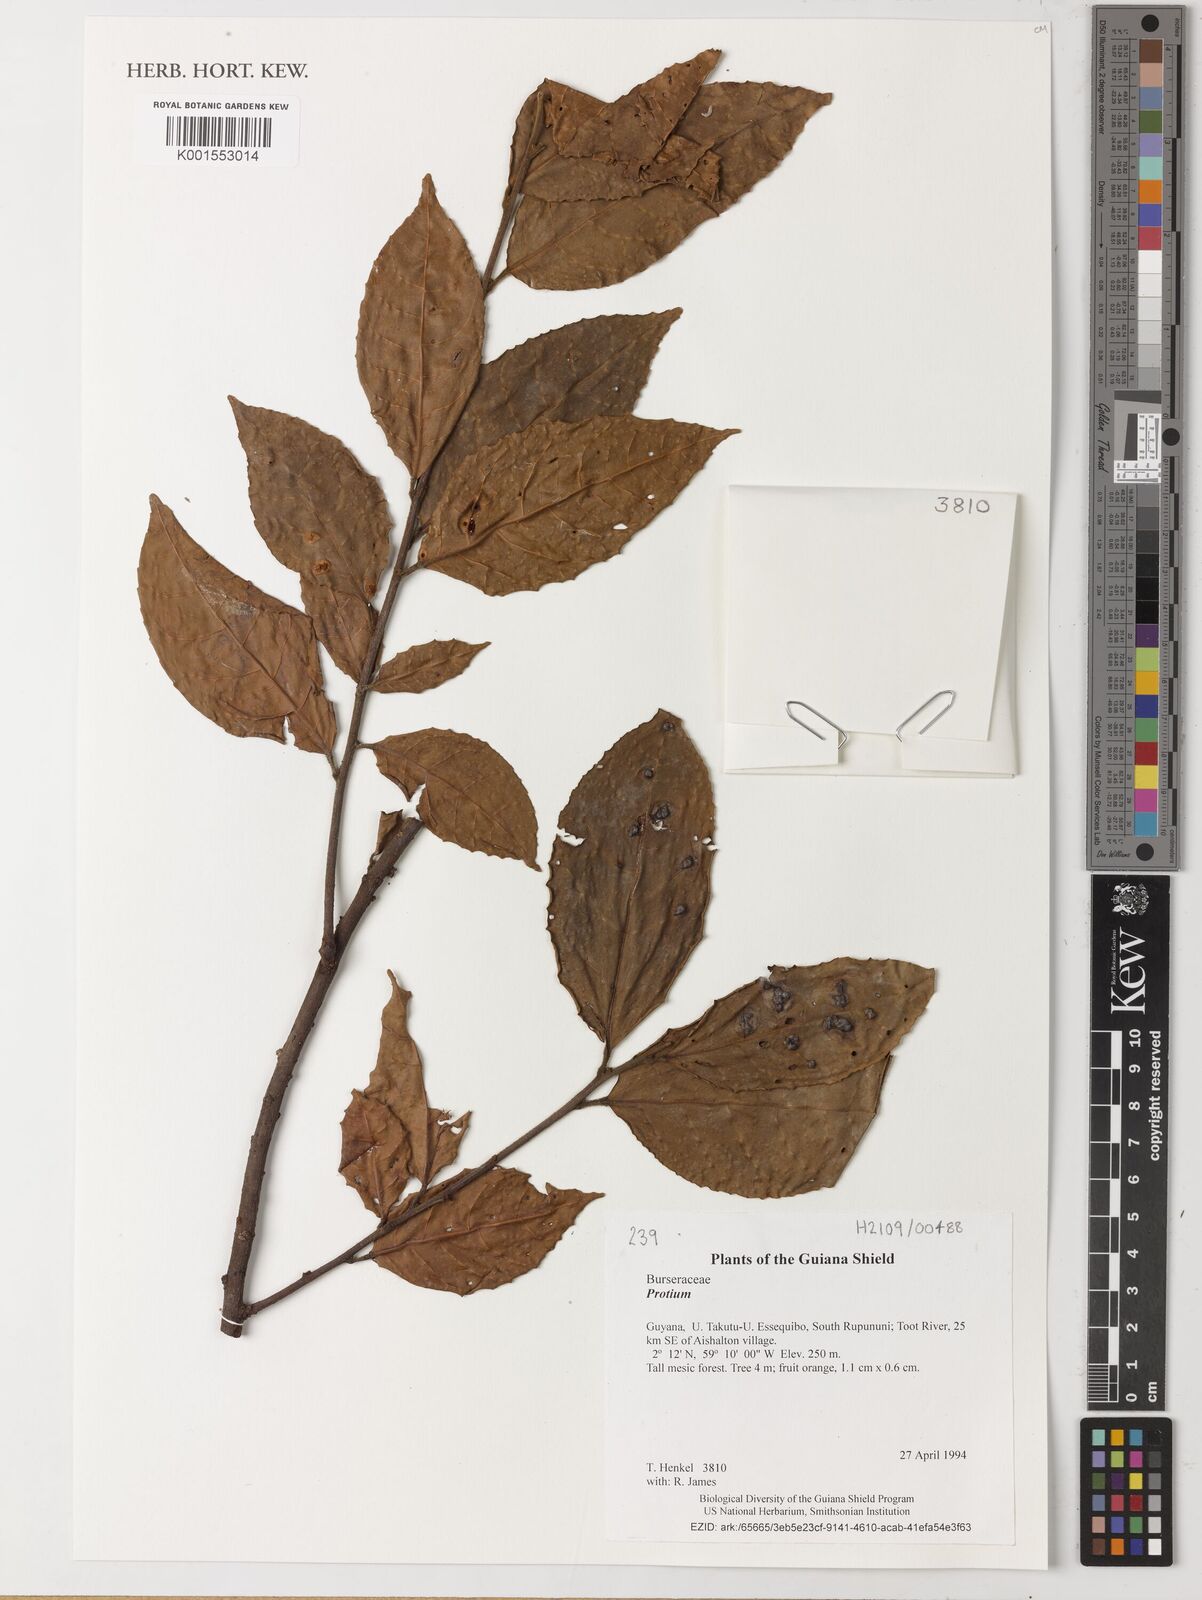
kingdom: Plantae
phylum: Tracheophyta
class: Magnoliopsida
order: Sapindales
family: Burseraceae
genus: Protium
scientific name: Protium
